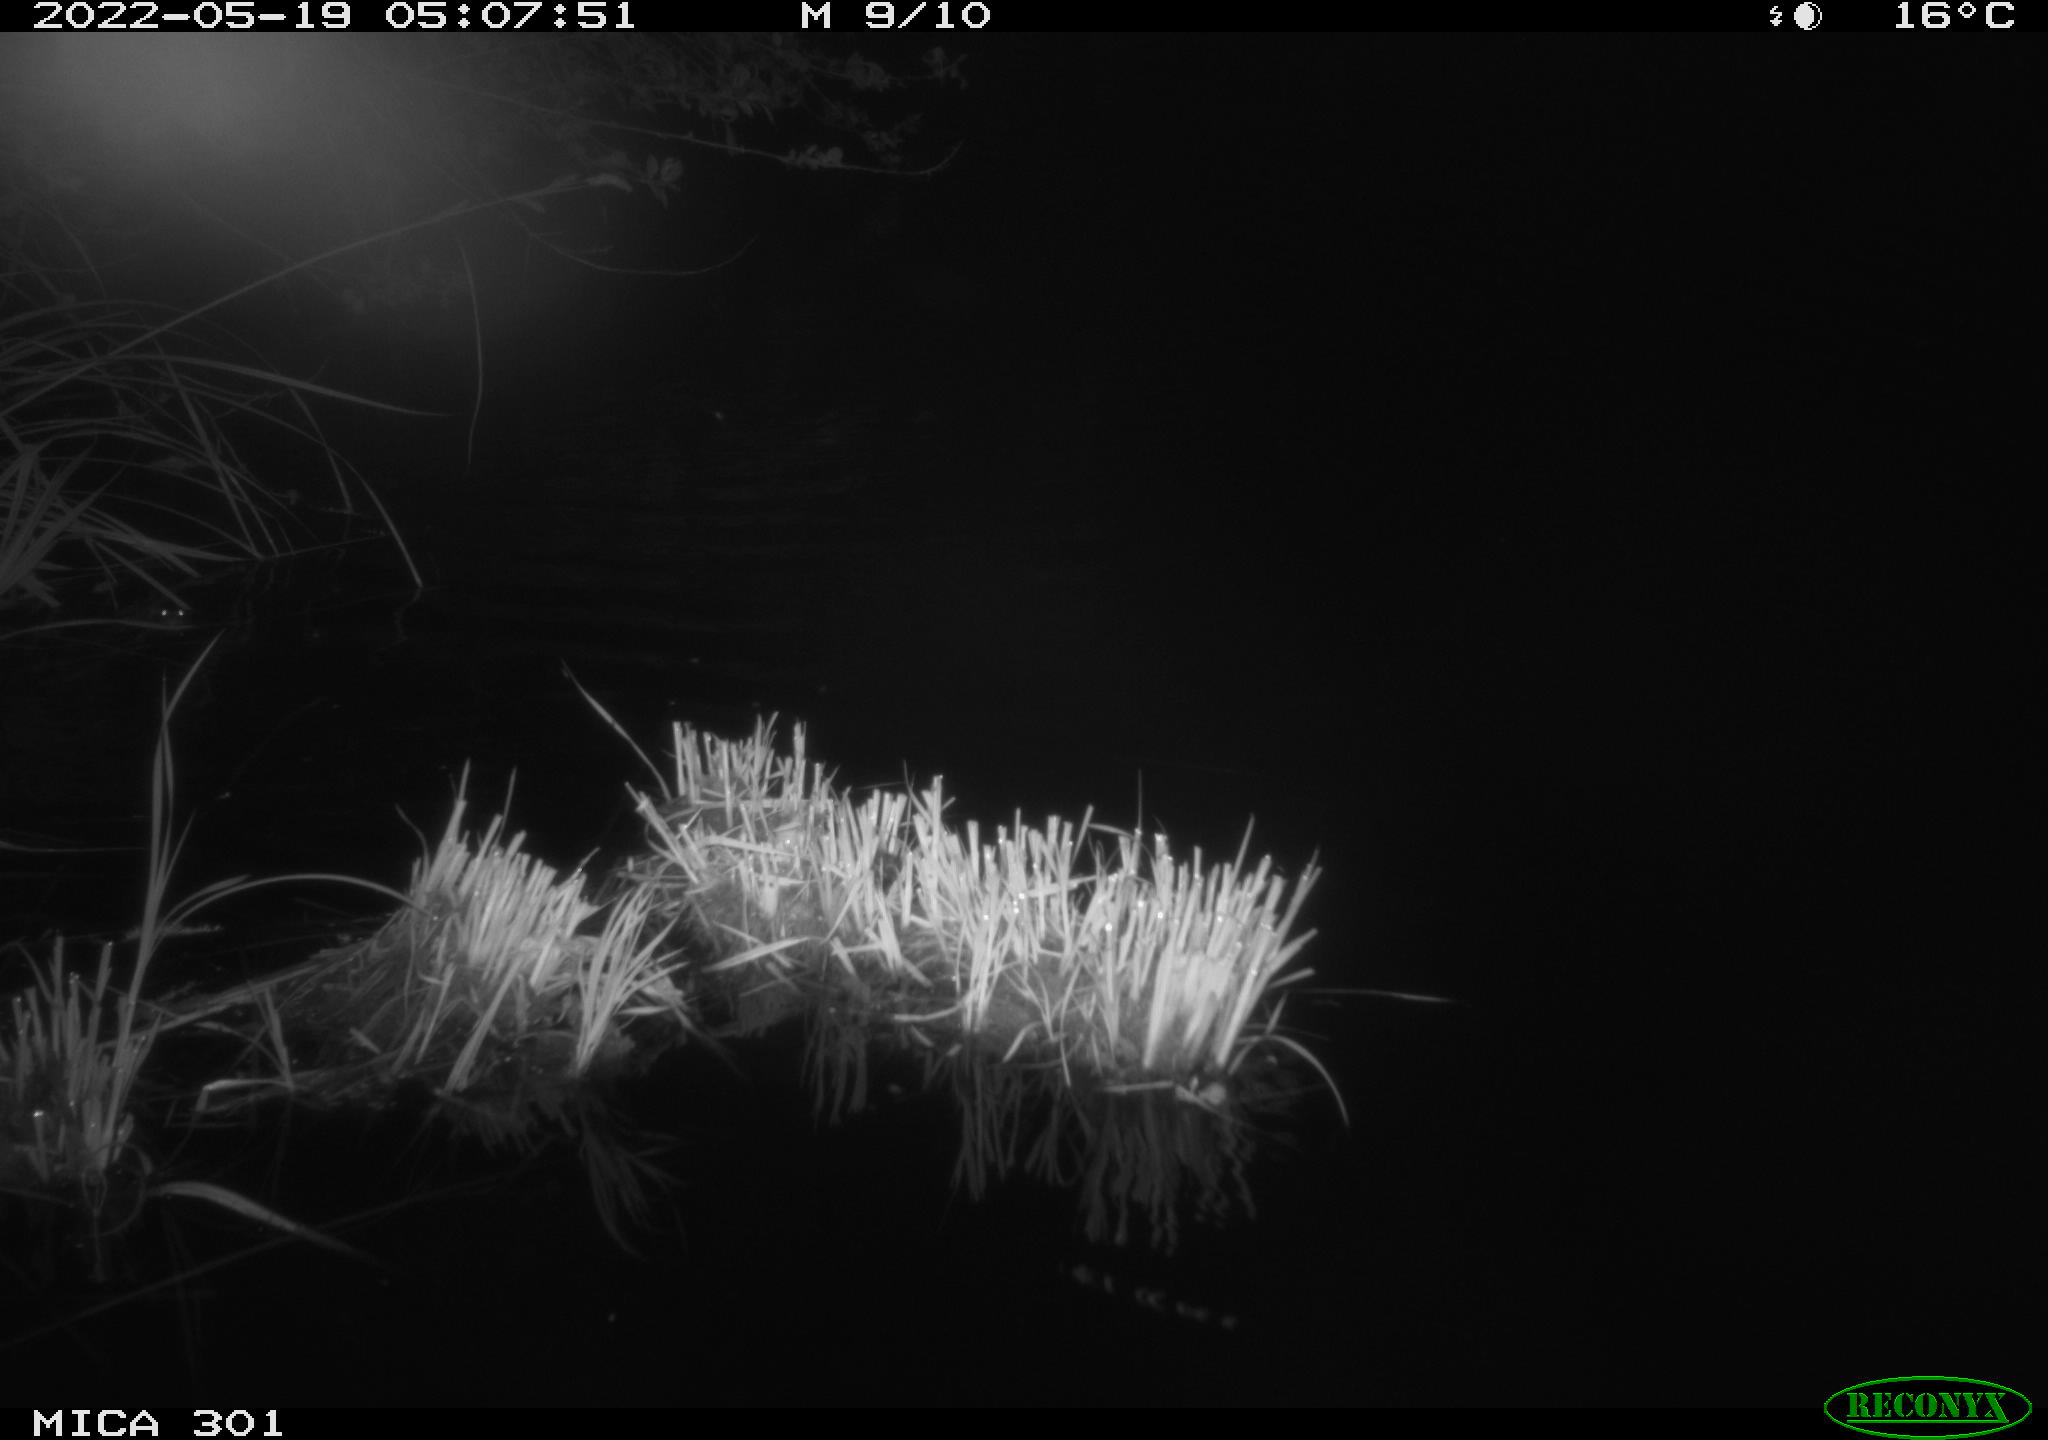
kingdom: Animalia
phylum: Chordata
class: Aves
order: Anseriformes
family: Anatidae
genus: Anas
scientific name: Anas platyrhynchos
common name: Mallard
